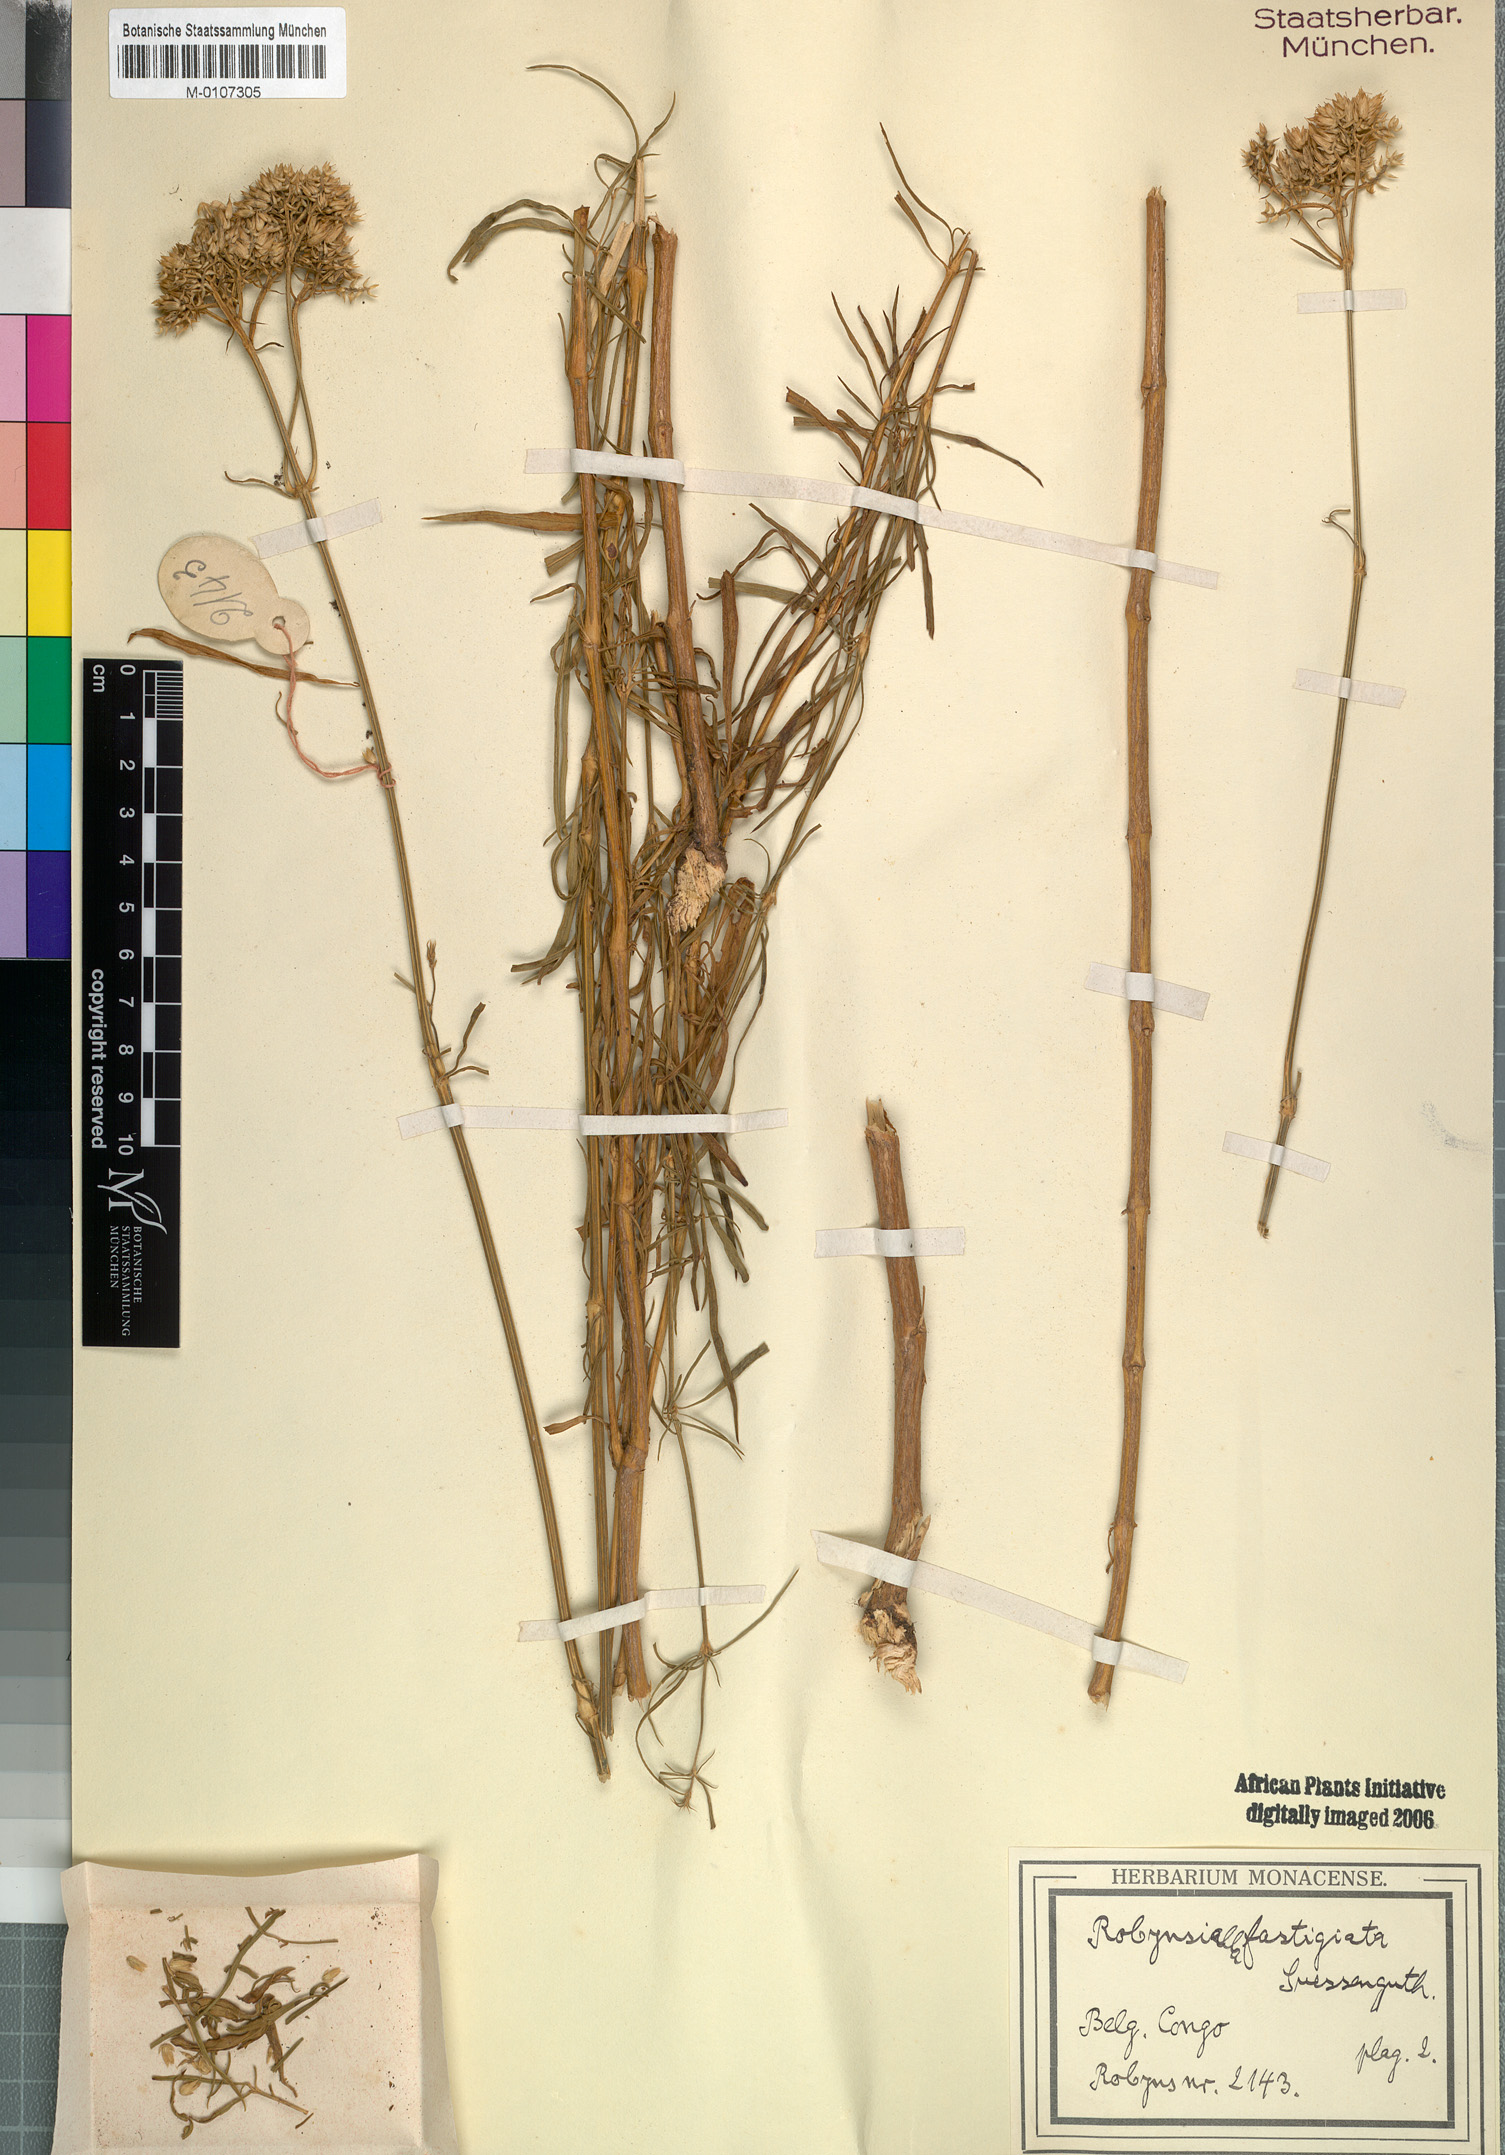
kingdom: Plantae
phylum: Tracheophyta
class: Magnoliopsida
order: Caryophyllales
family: Amaranthaceae
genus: Centemopsis
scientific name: Centemopsis fastigiata
